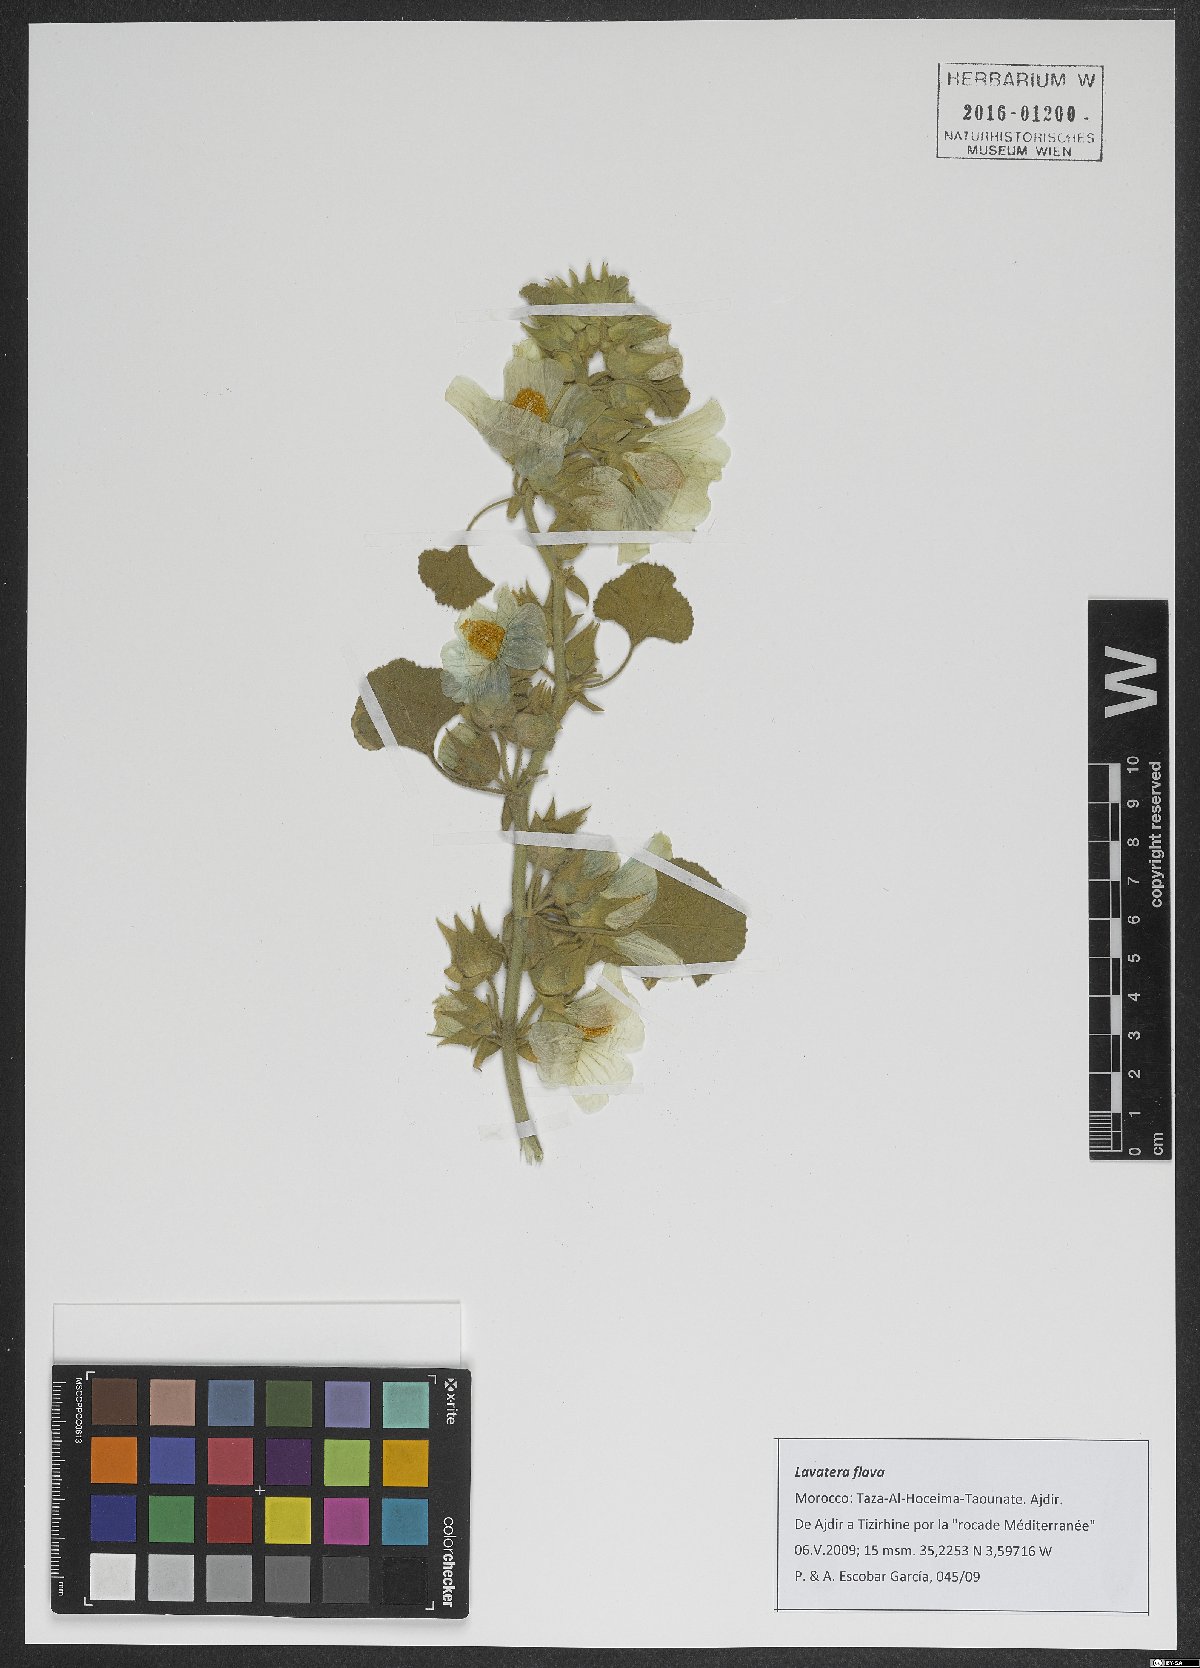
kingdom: Plantae
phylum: Tracheophyta
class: Magnoliopsida
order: Malvales
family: Malvaceae
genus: Malva
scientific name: Malva flava
